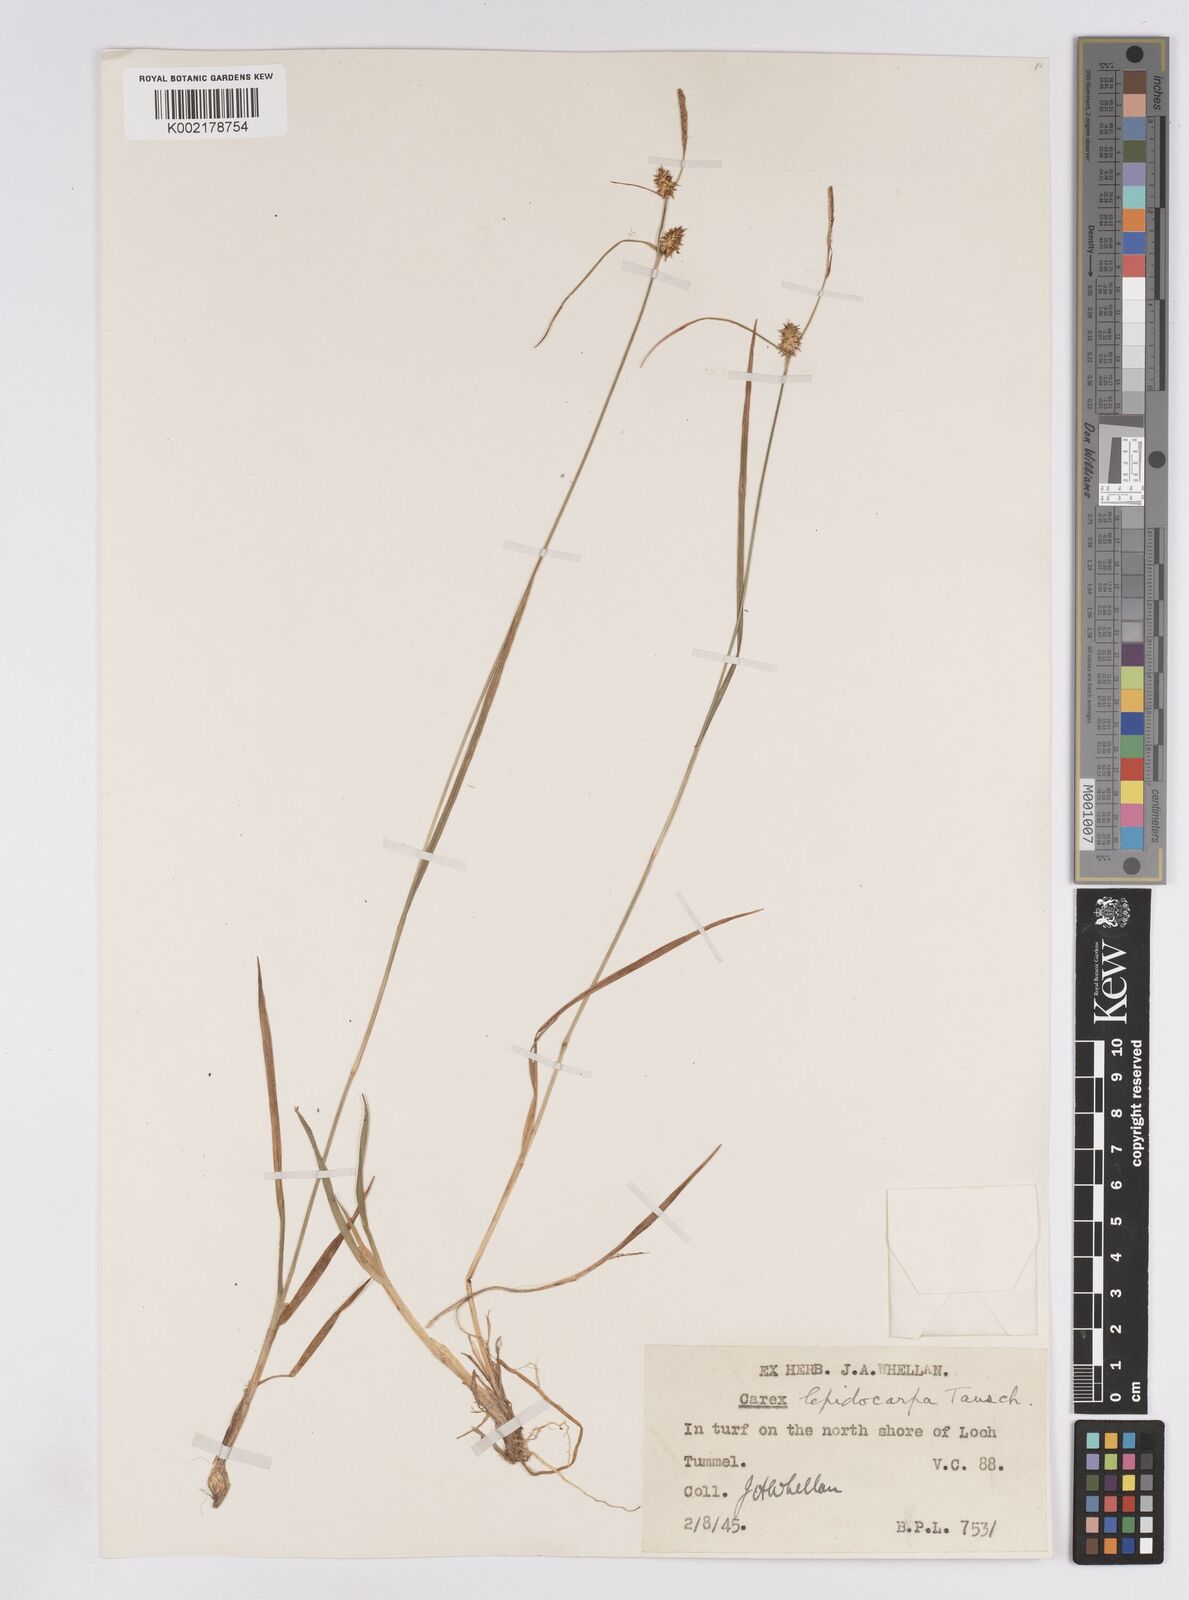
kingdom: Plantae
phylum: Tracheophyta
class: Liliopsida
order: Poales
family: Cyperaceae
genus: Carex
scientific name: Carex lepidocarpa
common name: Long-stalked yellow-sedge
